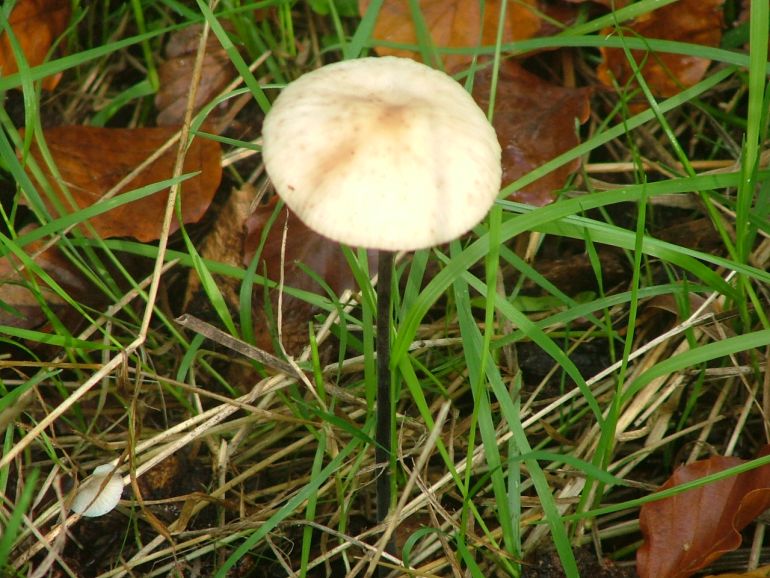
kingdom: Fungi
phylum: Basidiomycota
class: Agaricomycetes
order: Agaricales
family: Omphalotaceae
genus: Mycetinis
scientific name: Mycetinis alliaceus
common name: stor løghat
